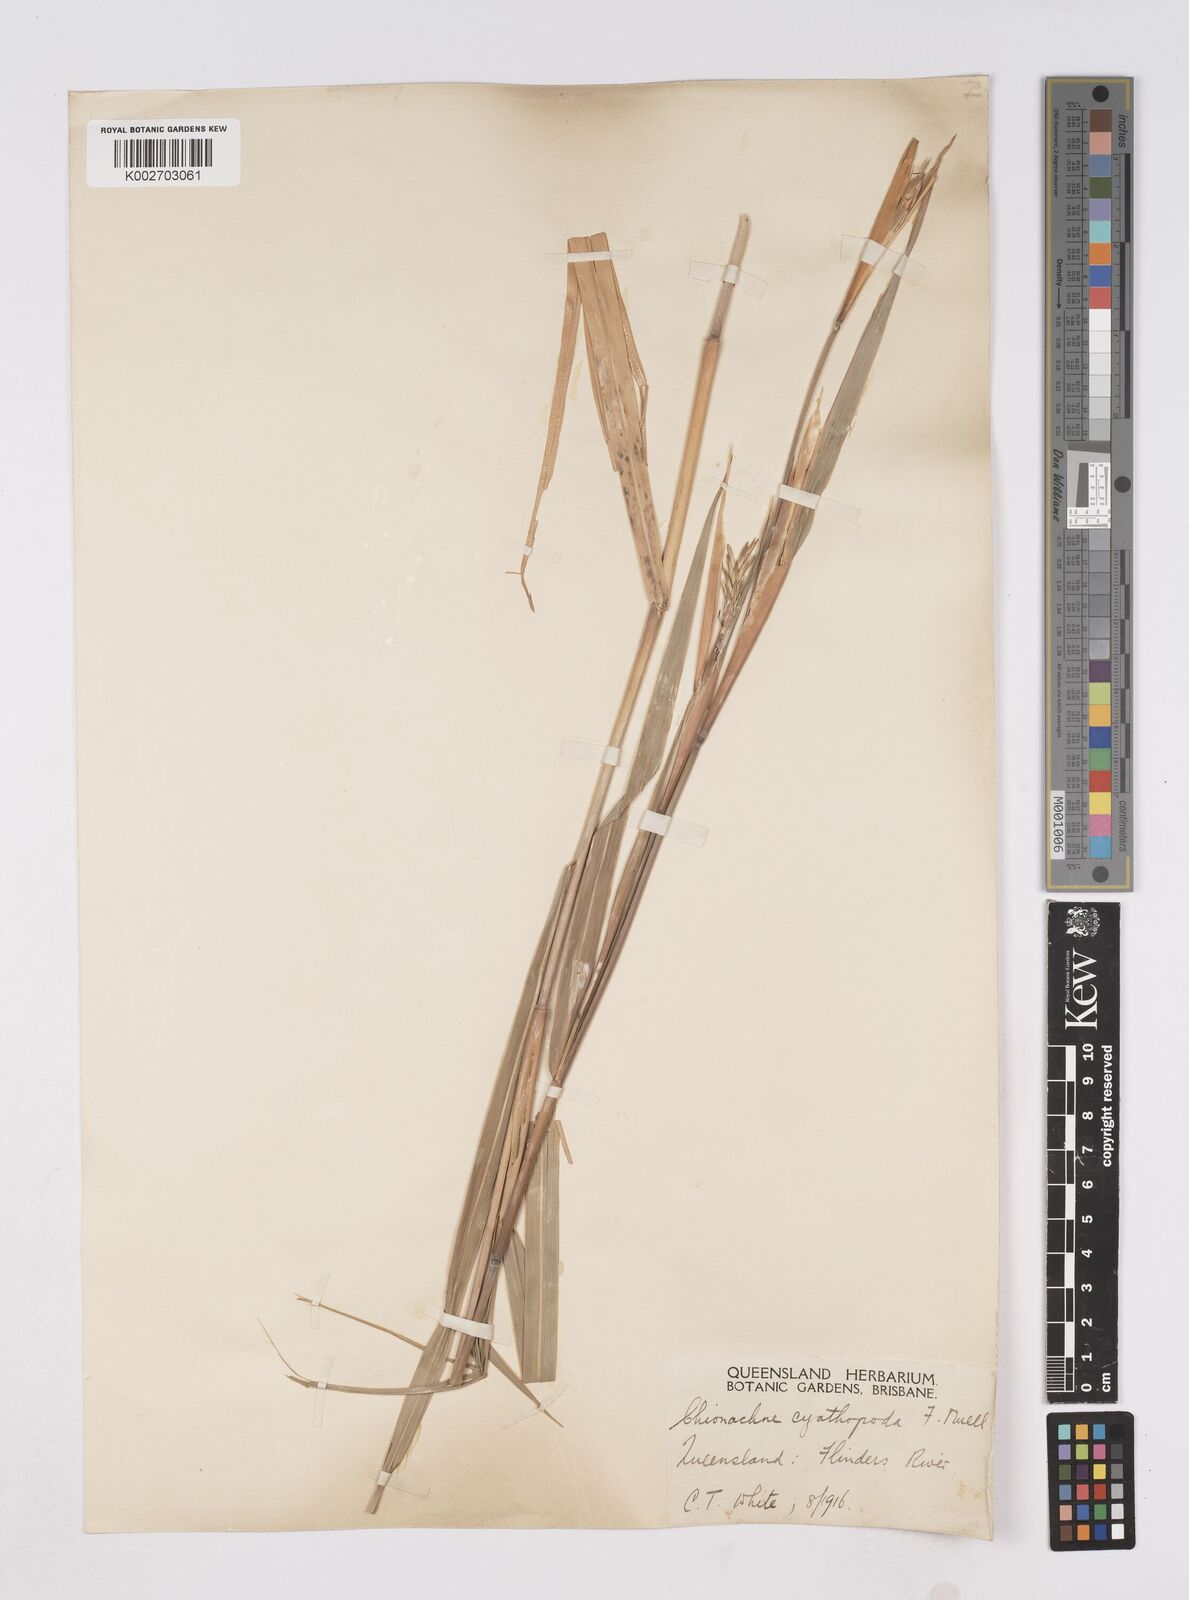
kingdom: Plantae
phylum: Tracheophyta
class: Liliopsida
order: Poales
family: Poaceae
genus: Polytoca
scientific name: Polytoca cyathopoda
